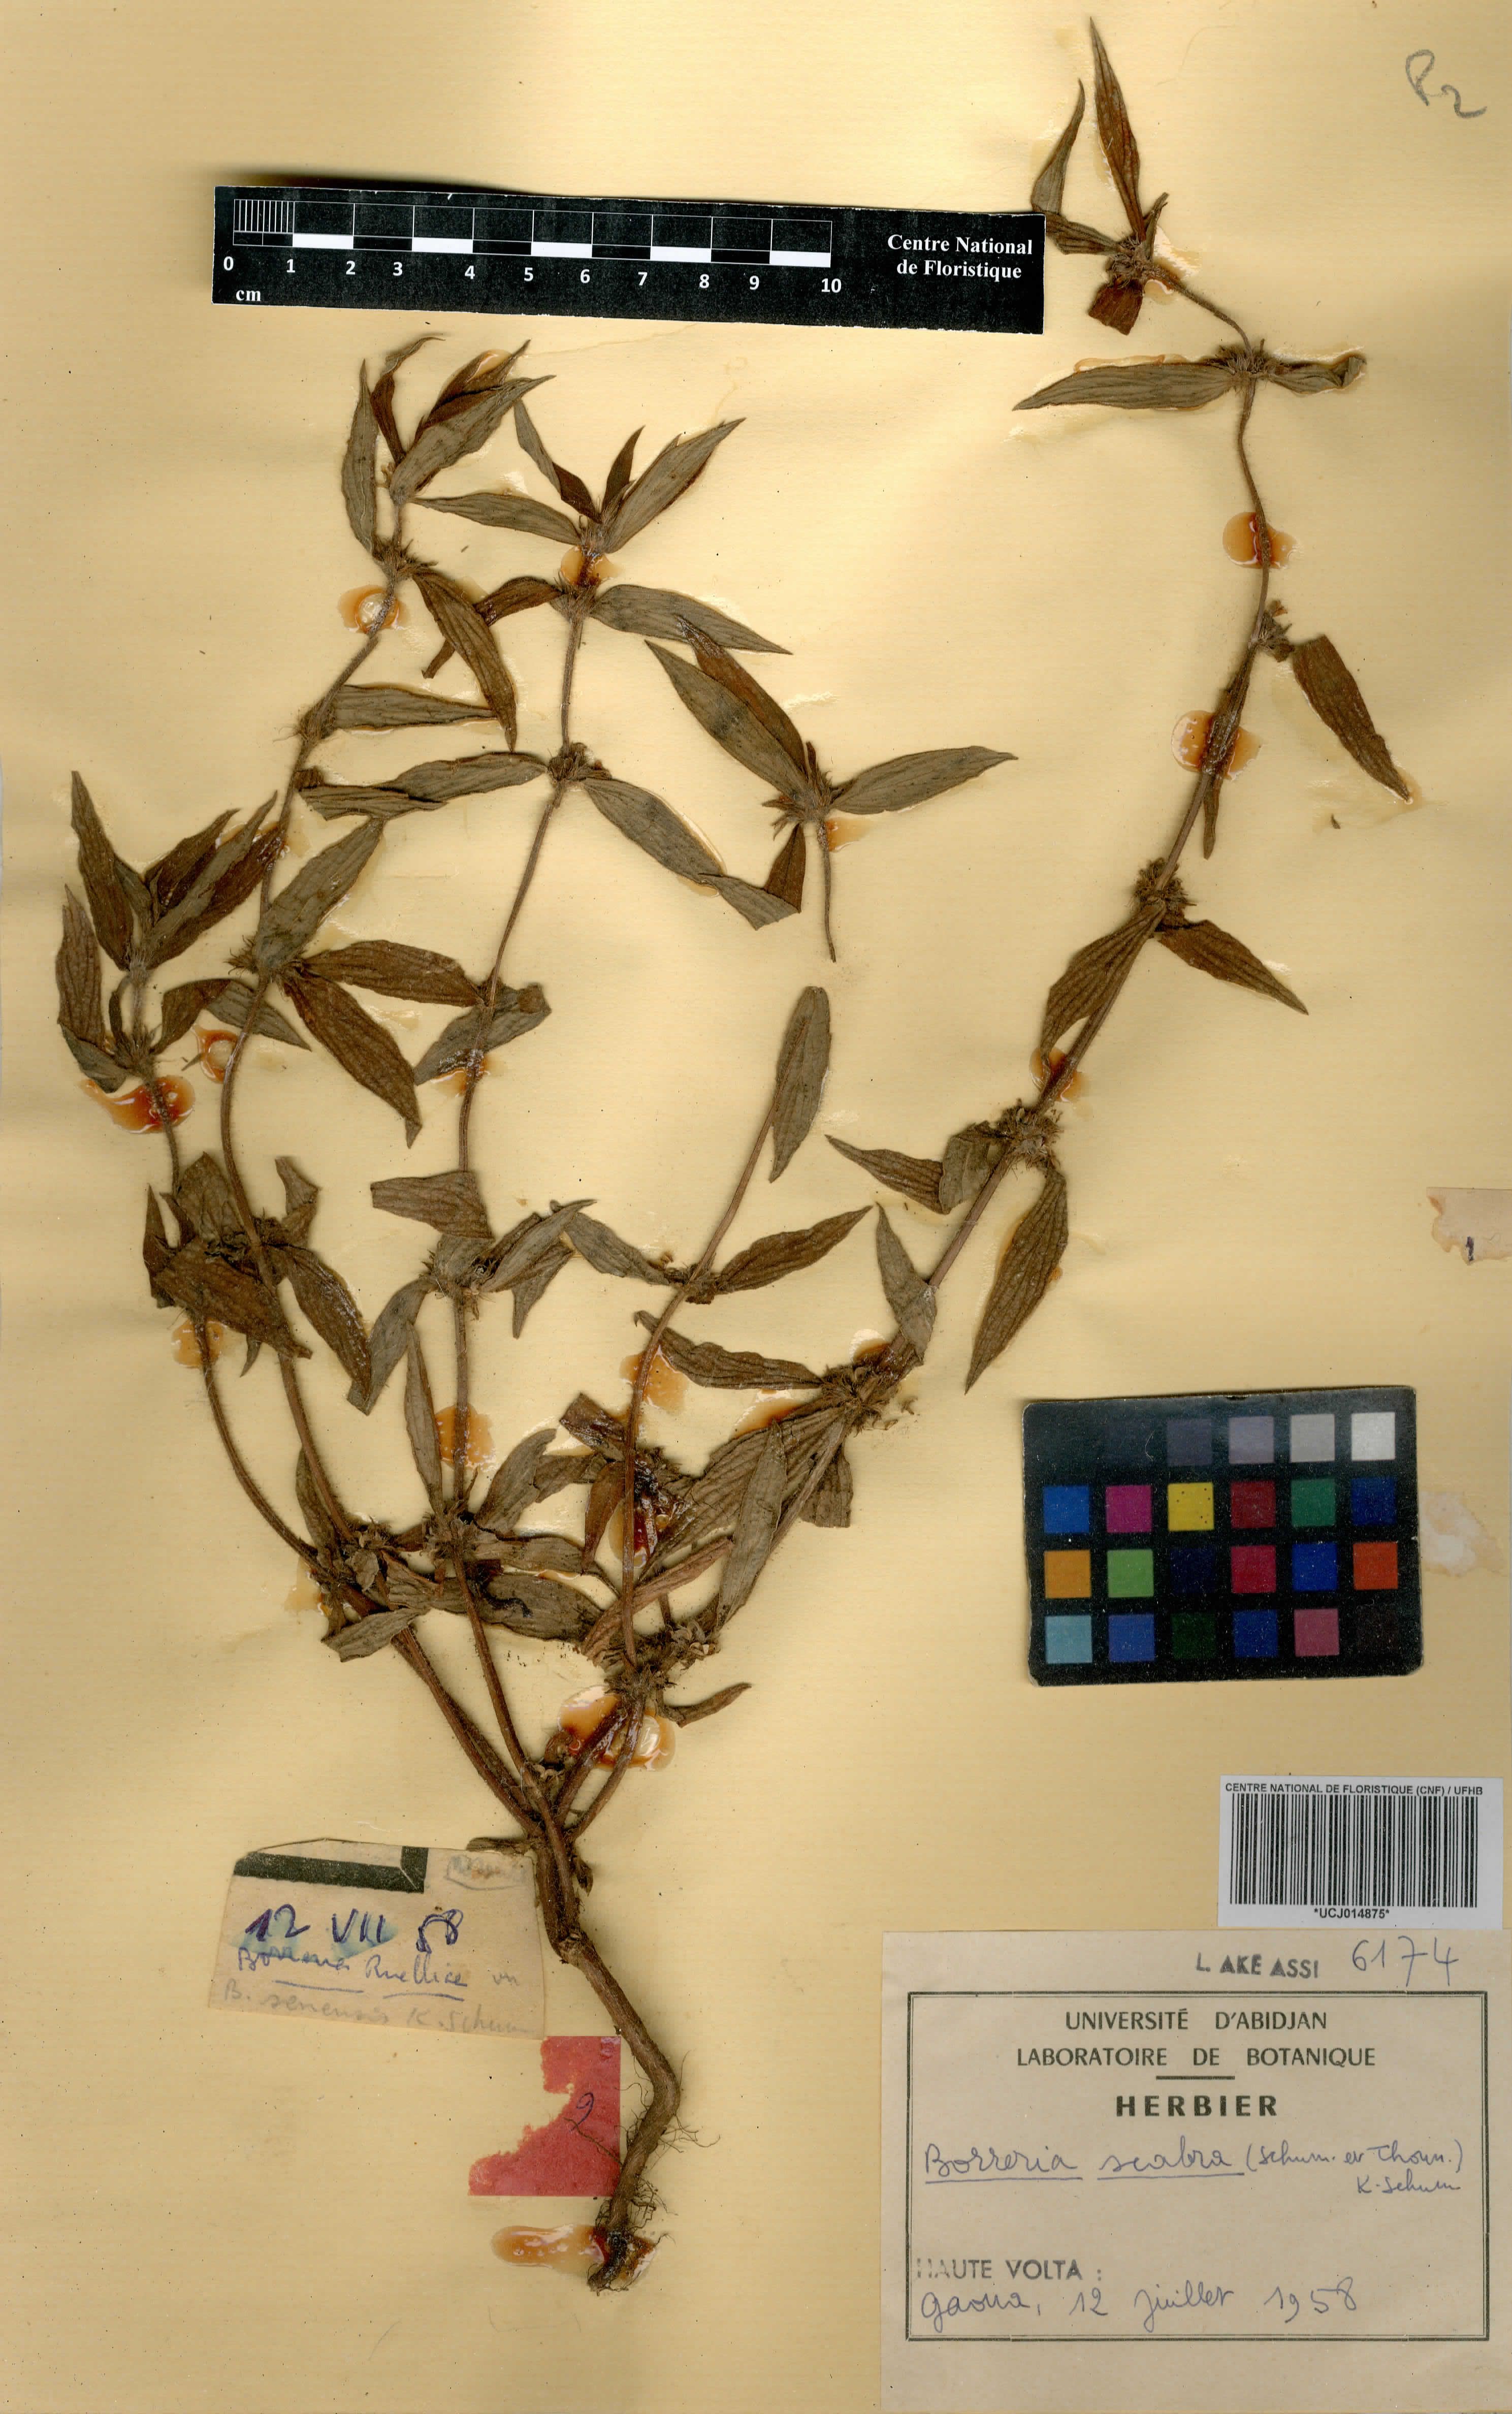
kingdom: Plantae
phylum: Tracheophyta
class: Magnoliopsida
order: Gentianales
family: Rubiaceae
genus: Spermacoce
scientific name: Spermacoce ruelliae
